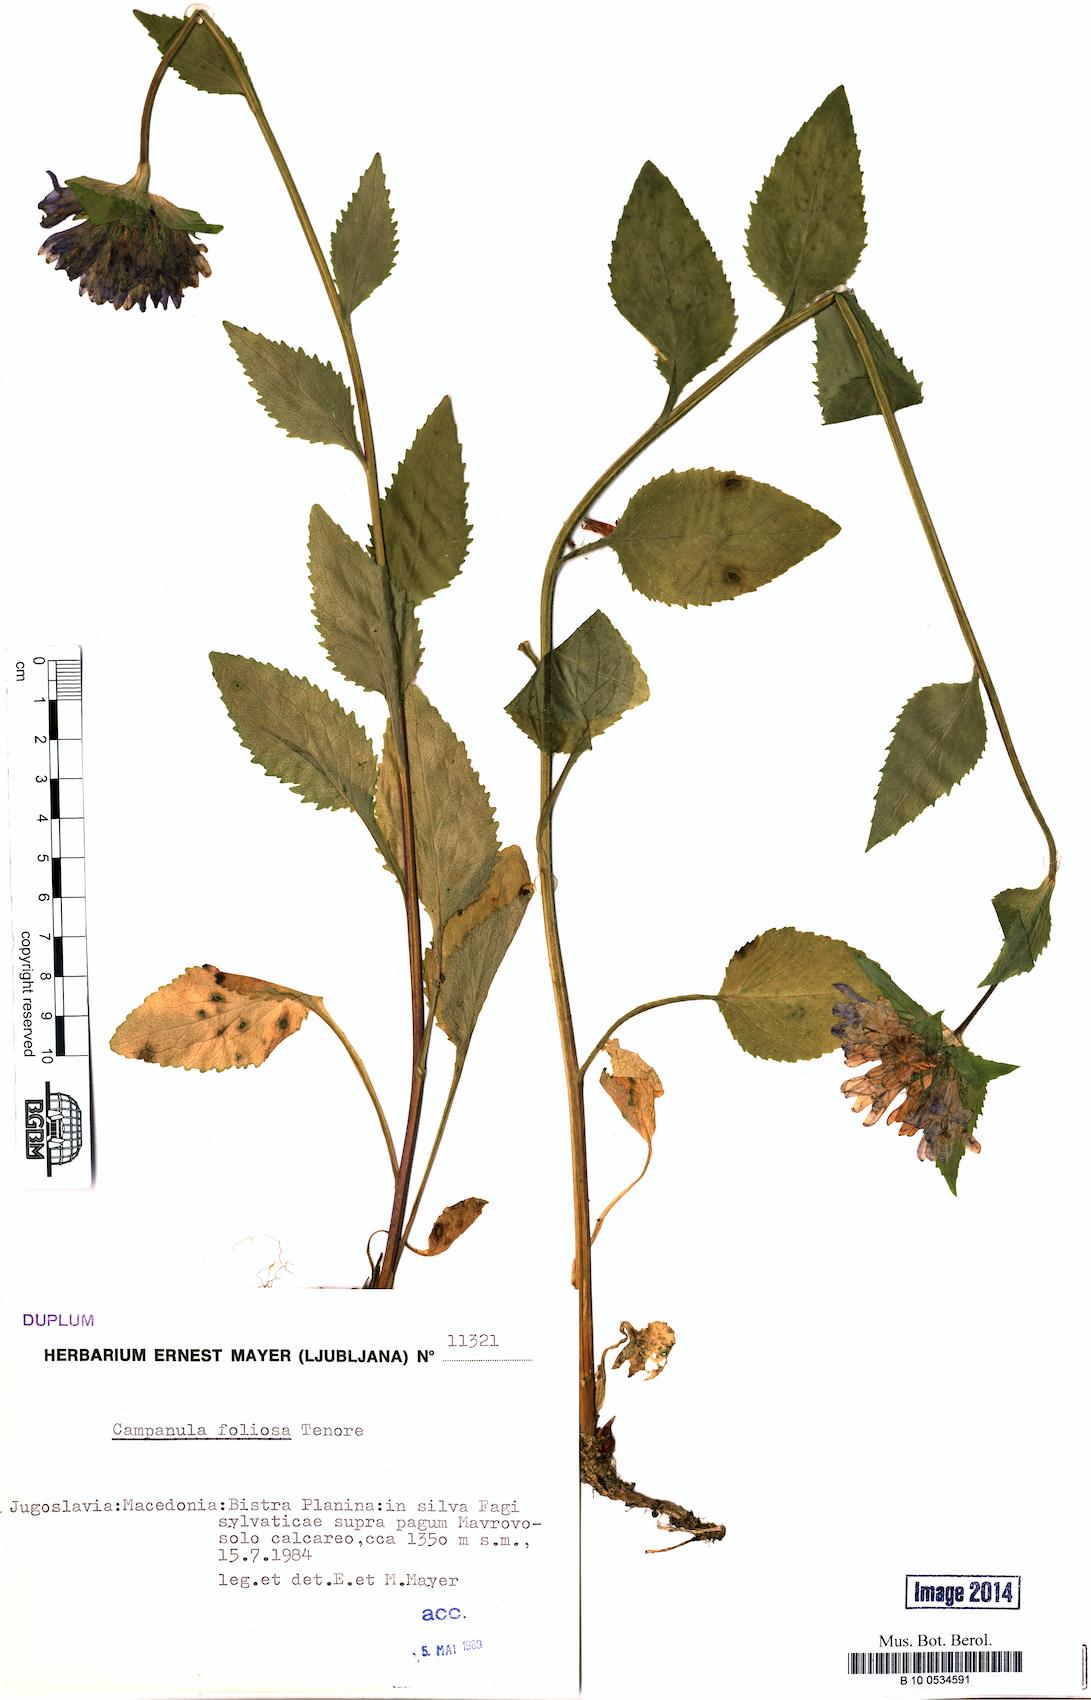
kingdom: Plantae
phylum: Tracheophyta
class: Magnoliopsida
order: Asterales
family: Campanulaceae
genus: Campanula
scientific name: Campanula foliosa
